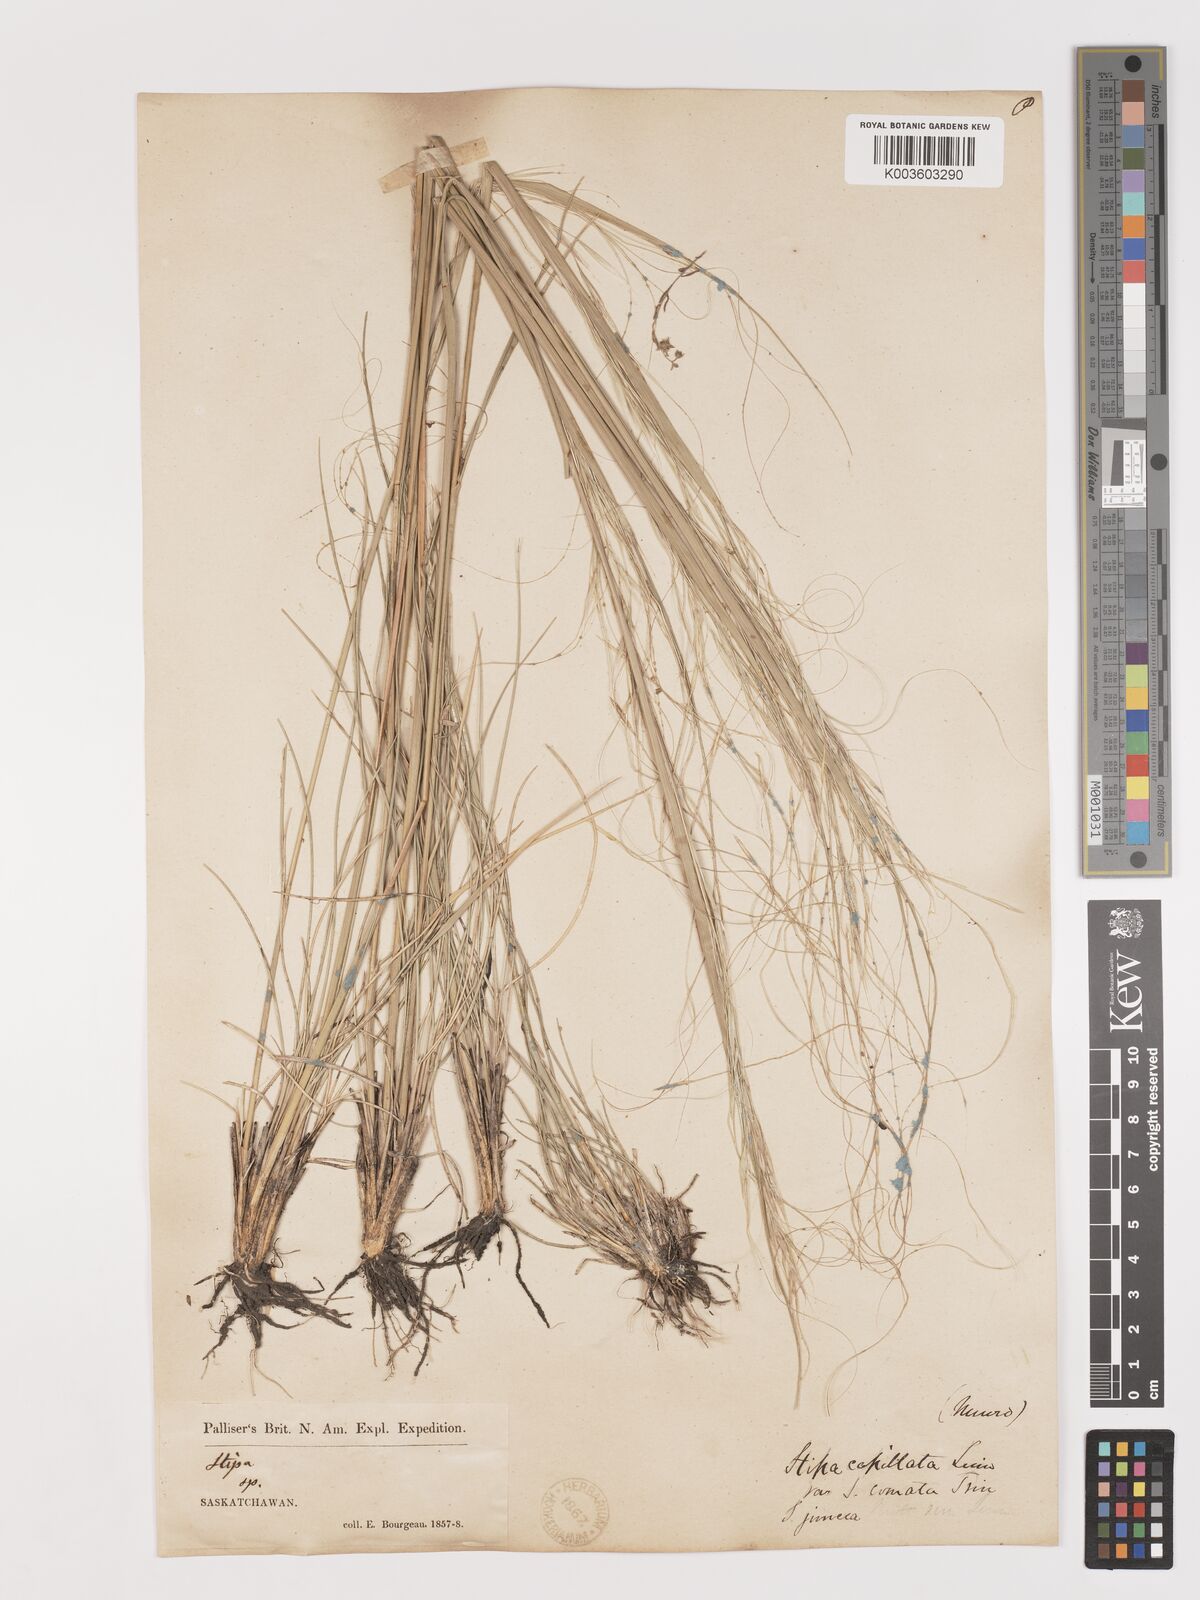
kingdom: Plantae
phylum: Tracheophyta
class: Liliopsida
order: Poales
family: Poaceae
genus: Stipa
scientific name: Stipa
